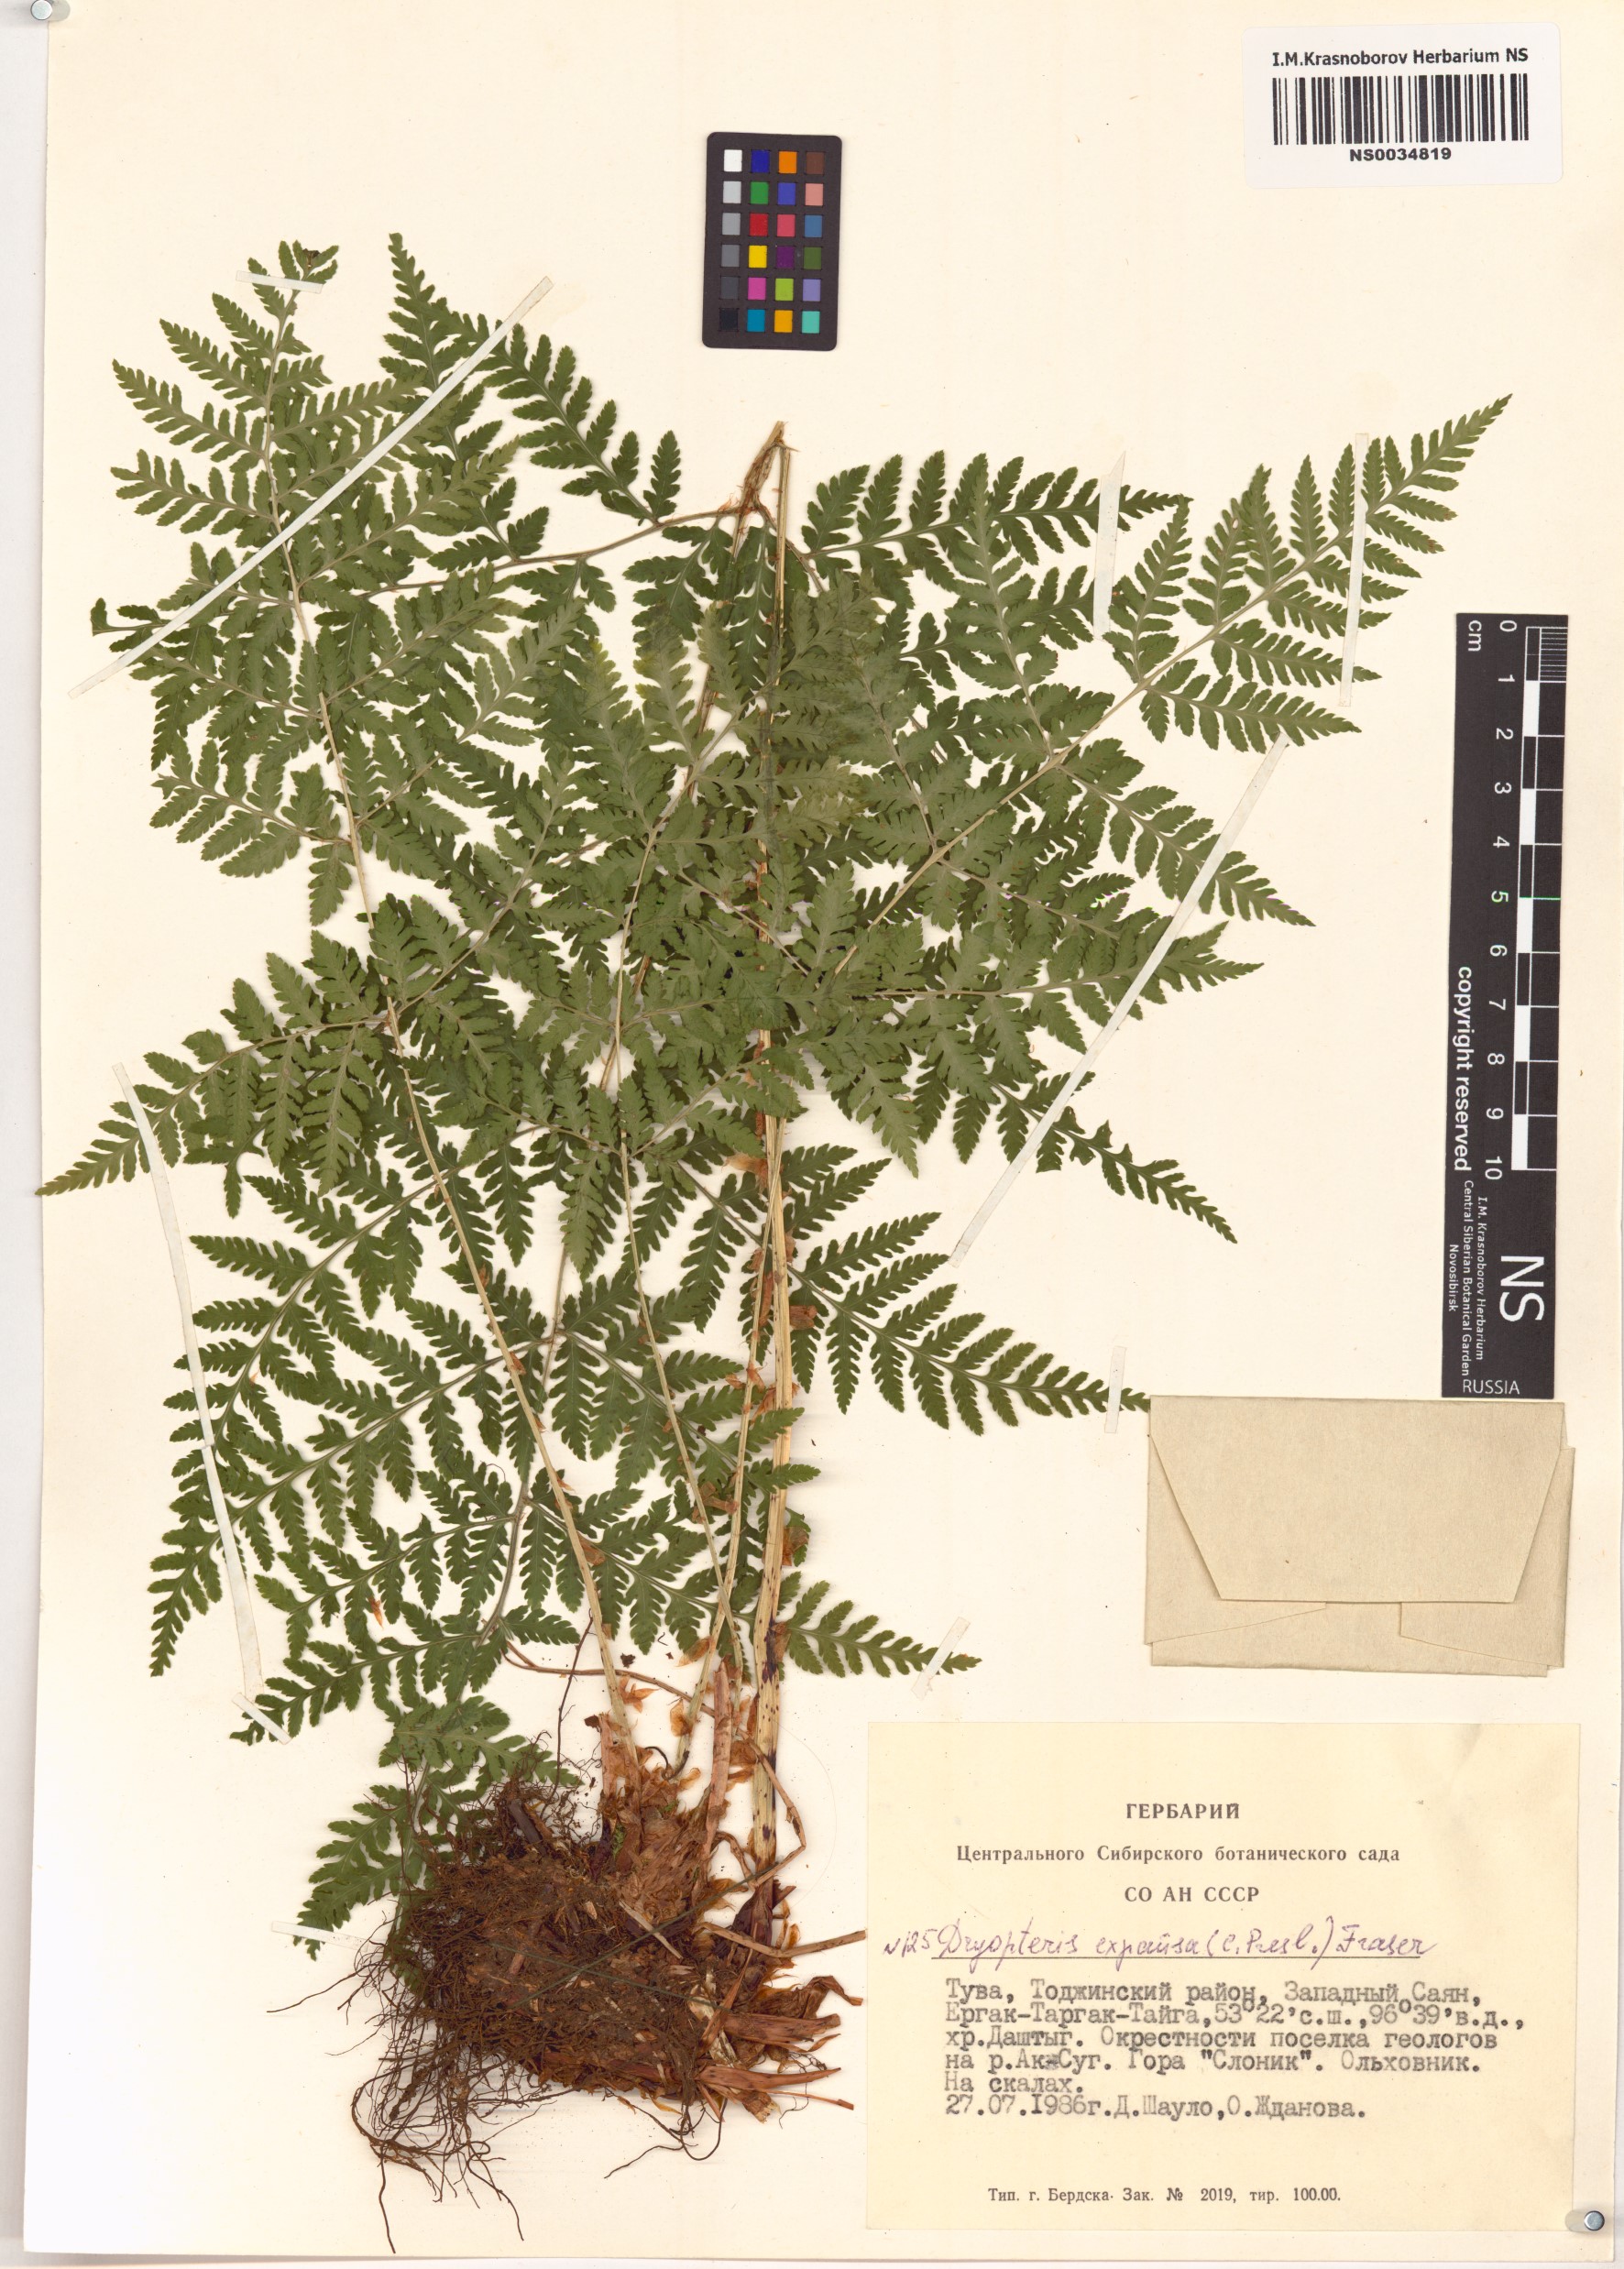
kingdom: Plantae
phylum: Tracheophyta
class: Polypodiopsida
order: Polypodiales
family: Dryopteridaceae
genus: Dryopteris
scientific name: Dryopteris expansa
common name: Northern buckler fern
